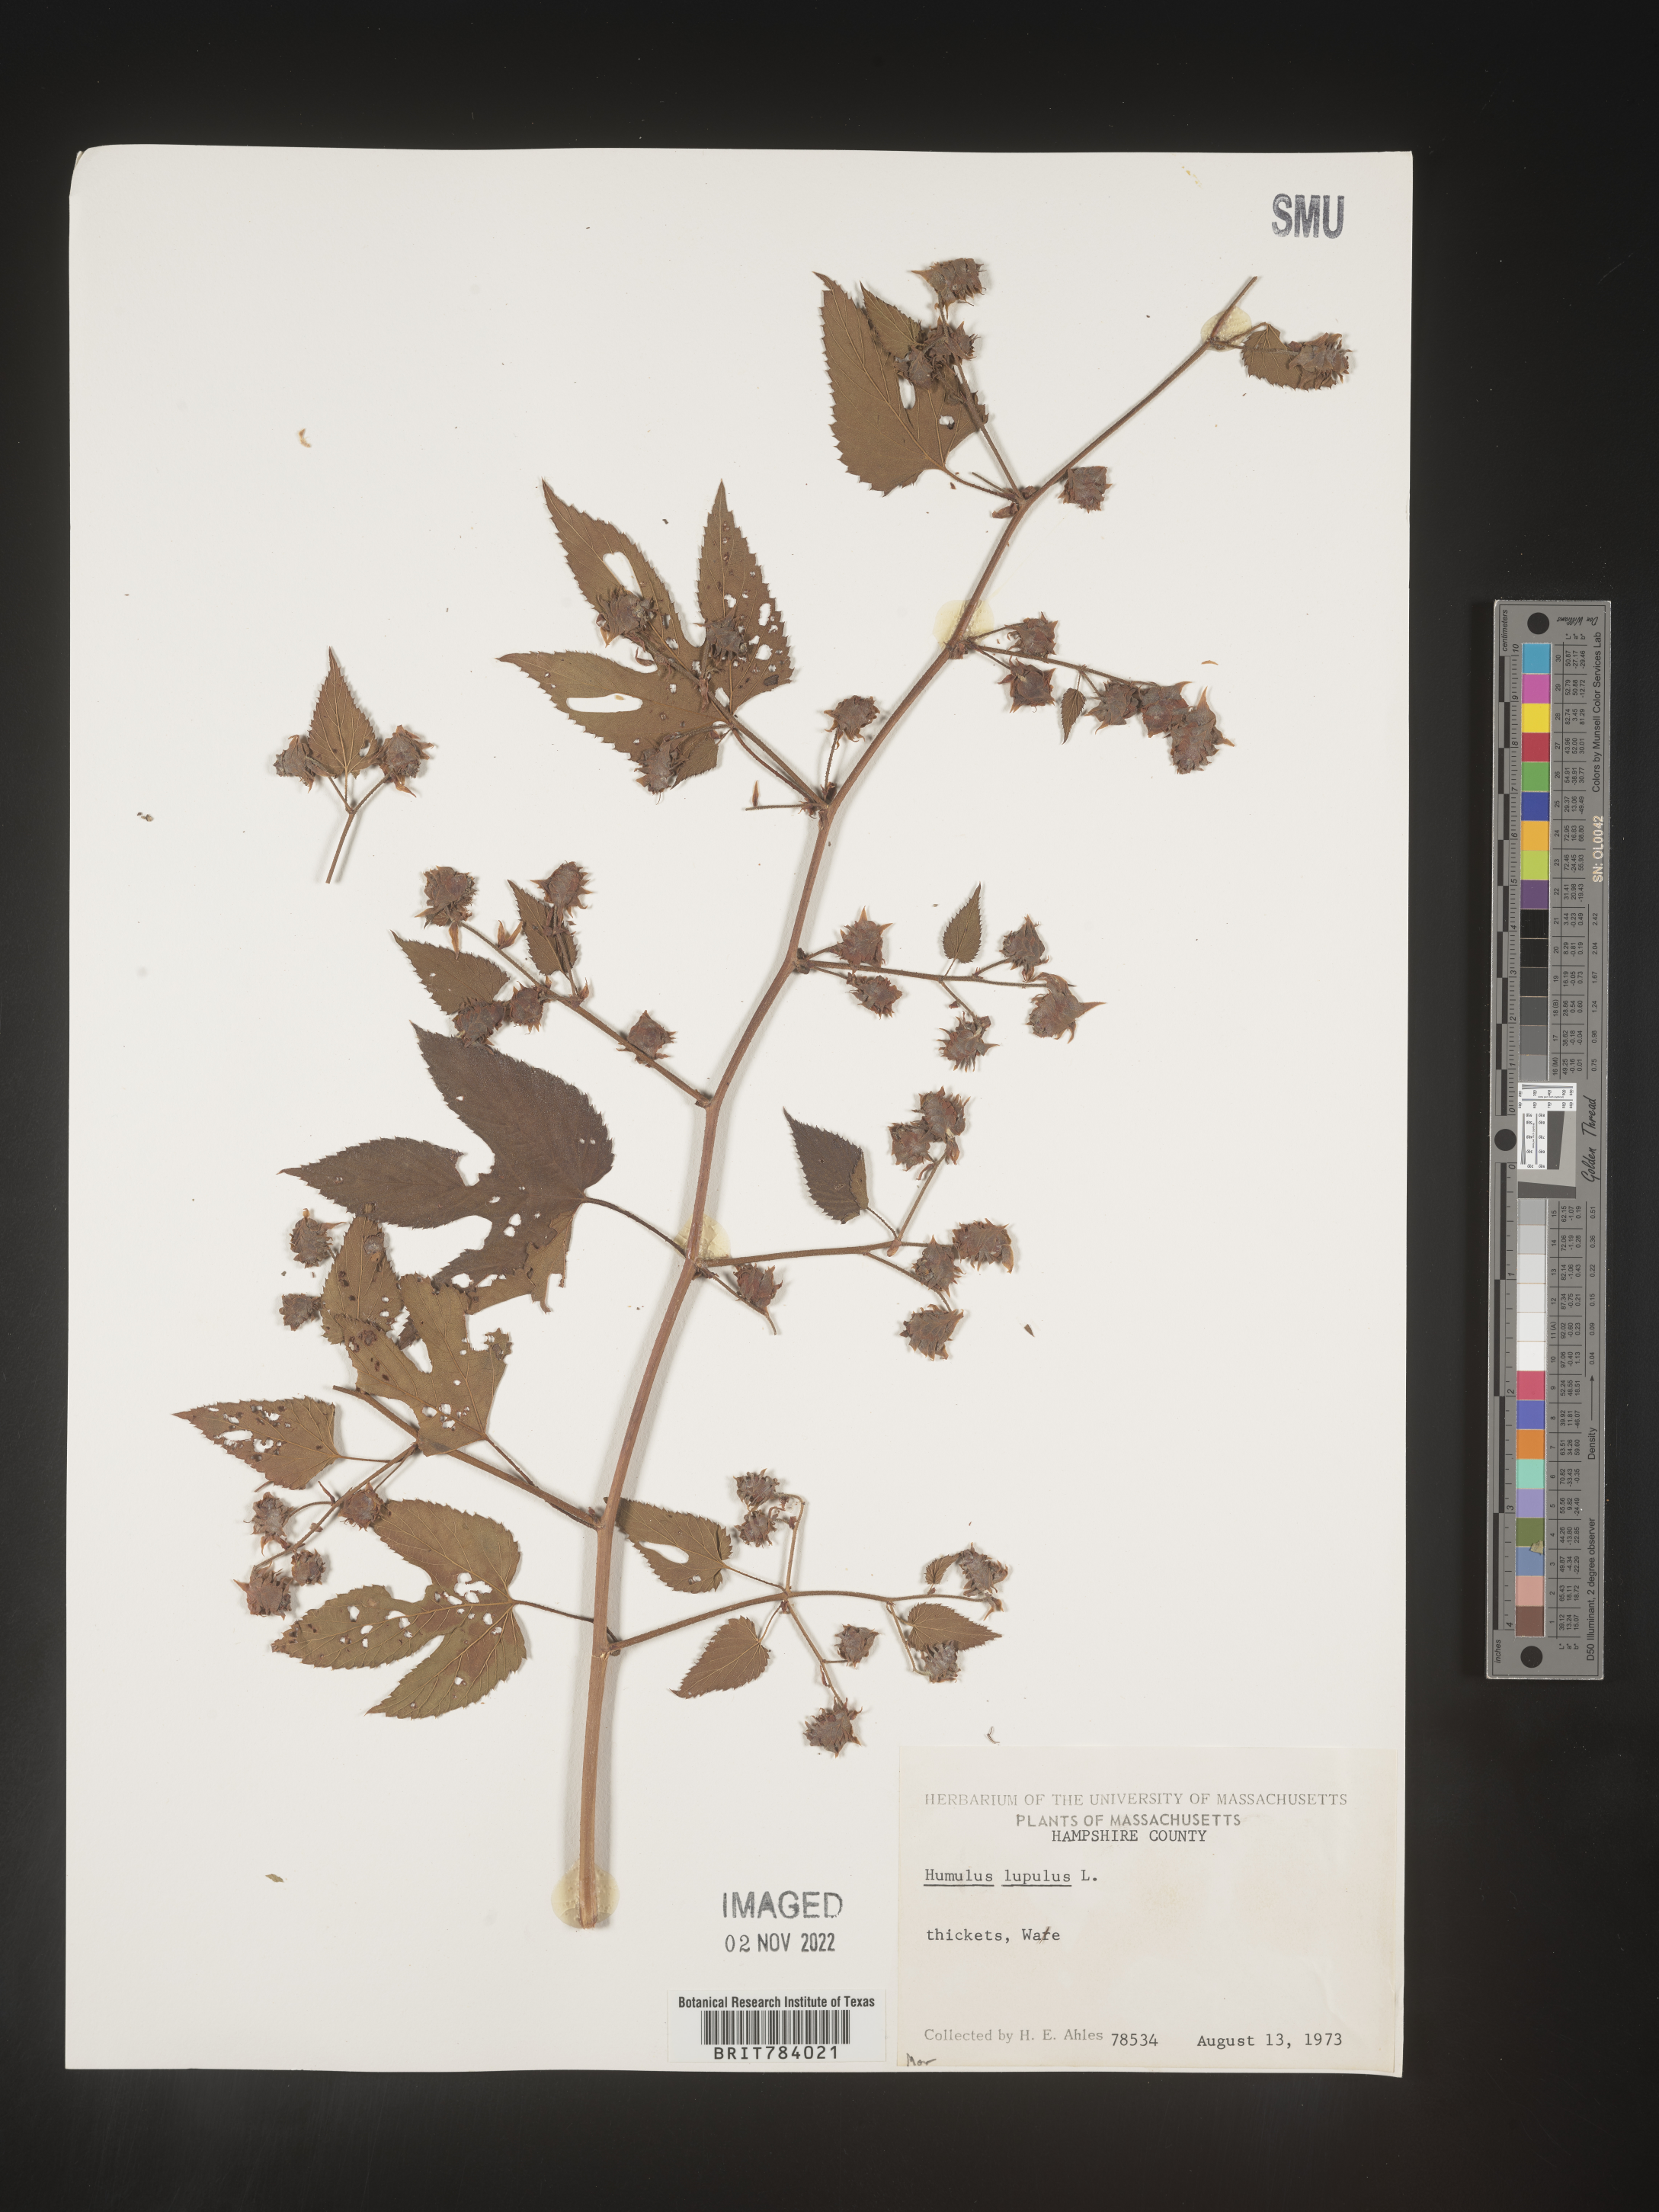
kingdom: Plantae
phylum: Tracheophyta
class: Magnoliopsida
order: Rosales
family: Cannabaceae
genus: Humulus
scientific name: Humulus lupulus
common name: Hop
